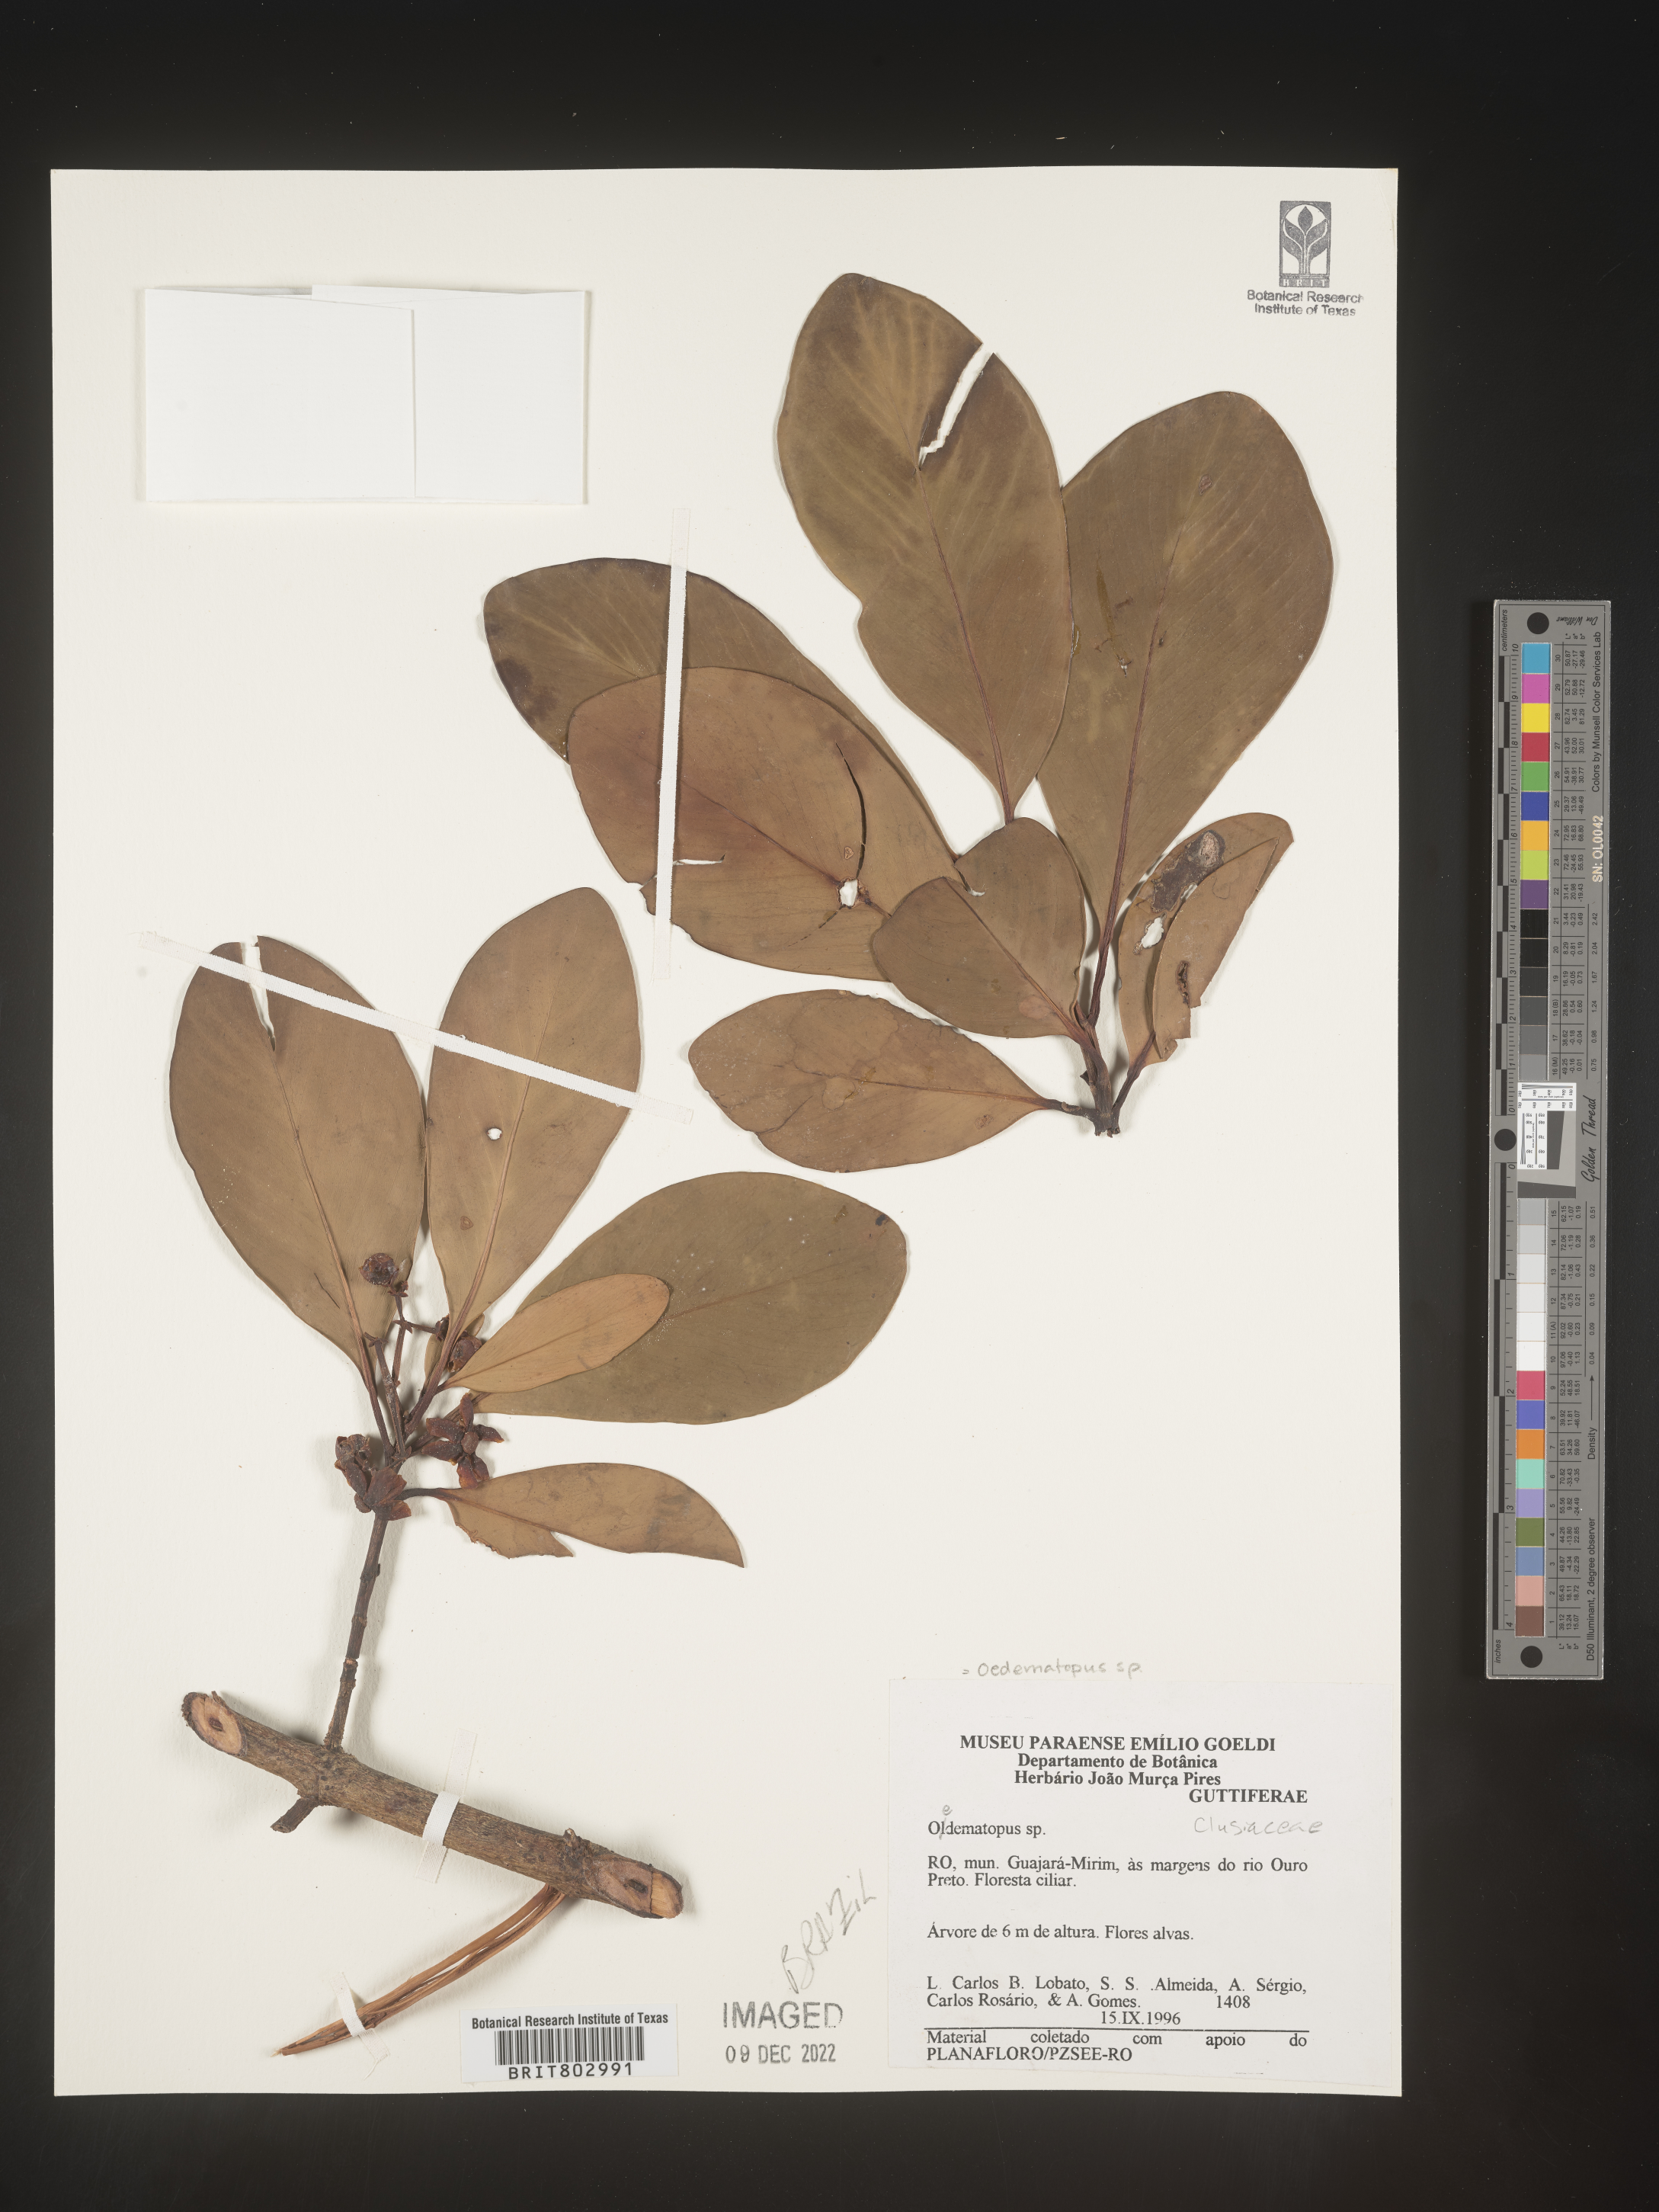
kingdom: Animalia
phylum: Arthropoda
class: Insecta
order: Diptera
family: Dolichopodidae
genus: Oedematopus
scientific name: Oedematopus
